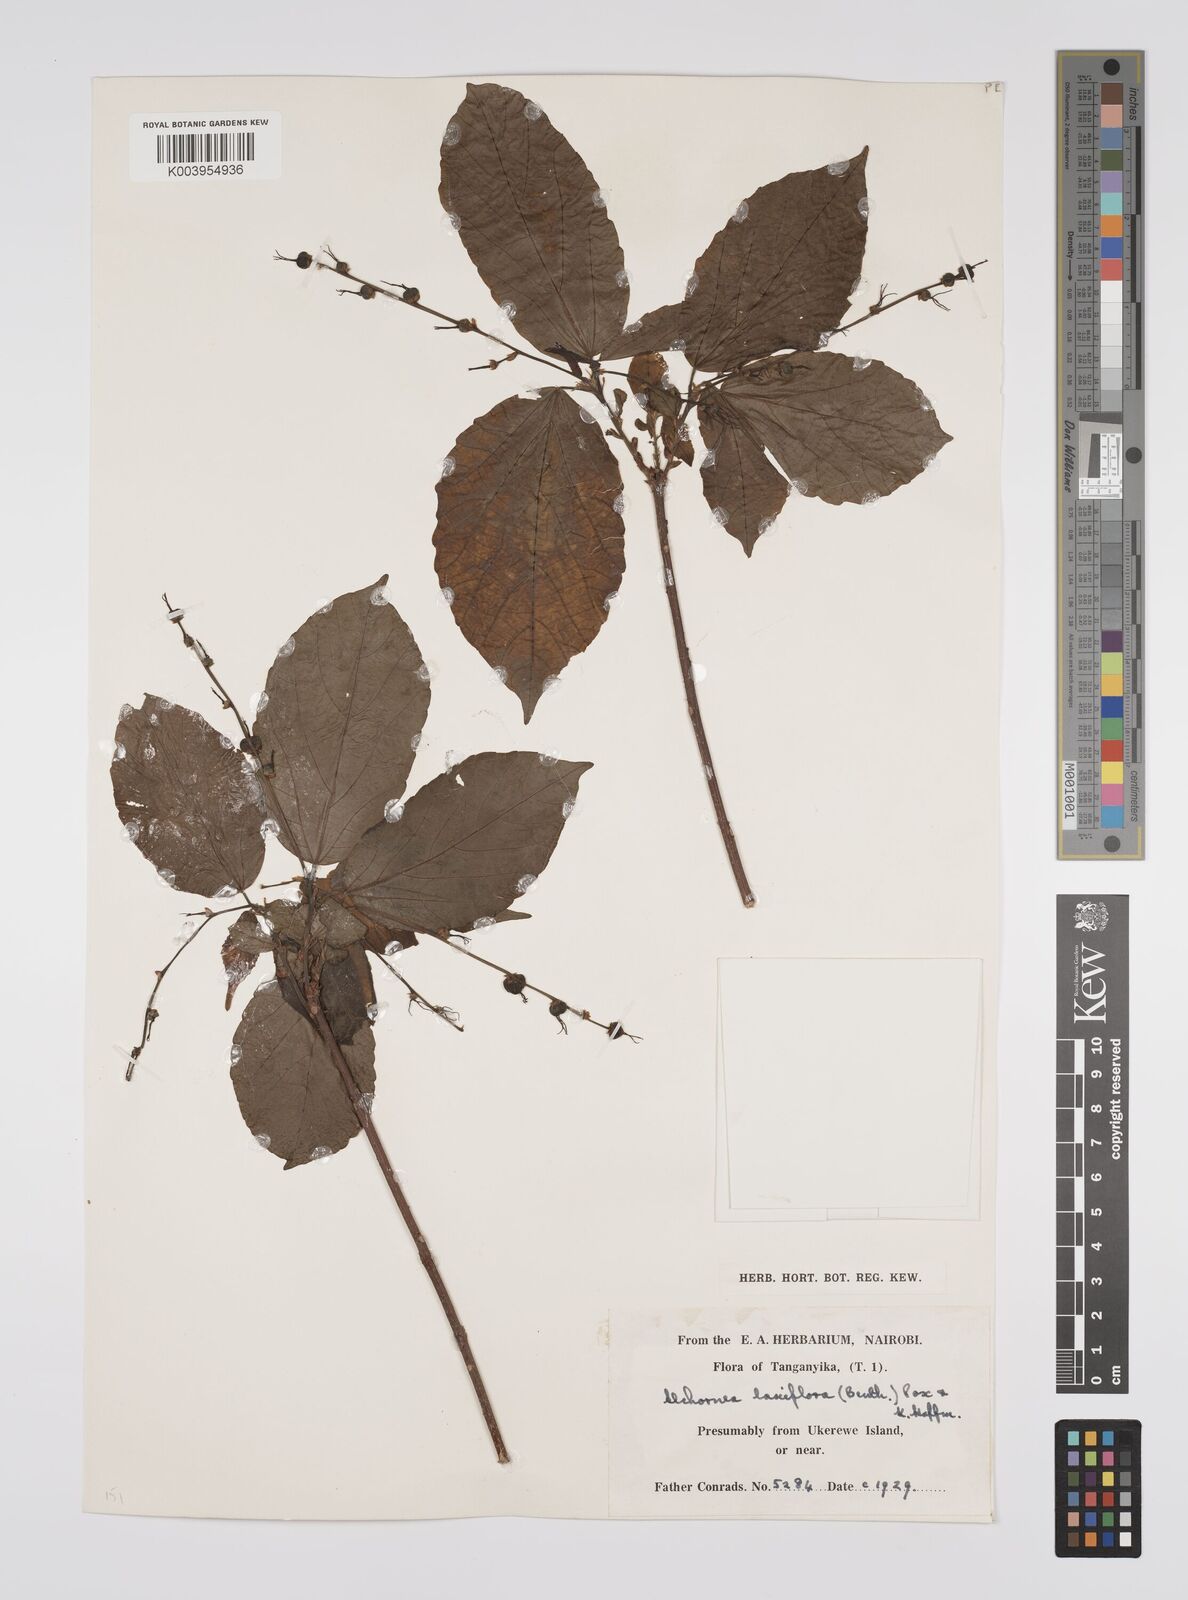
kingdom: Plantae
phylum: Tracheophyta
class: Magnoliopsida
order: Malpighiales
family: Euphorbiaceae
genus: Alchornea
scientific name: Alchornea laxiflora
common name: Lowveld bead-string
